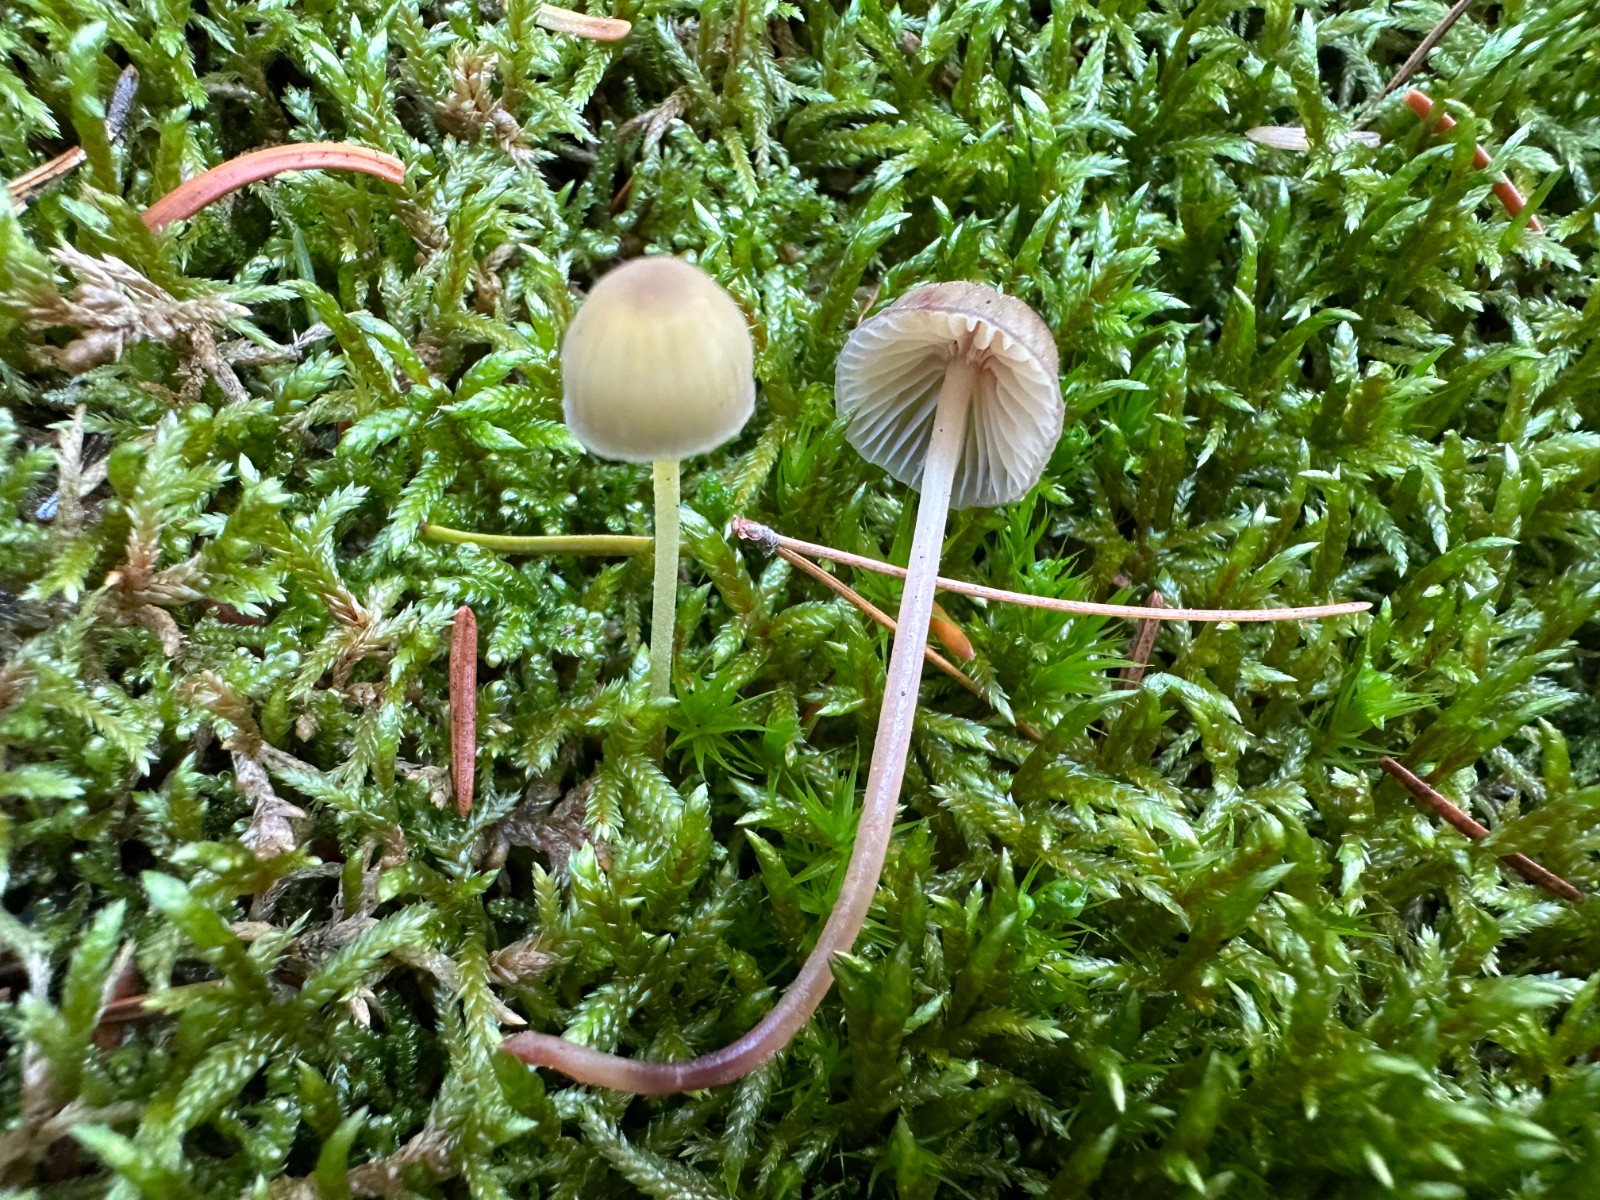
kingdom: Fungi
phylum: Basidiomycota
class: Agaricomycetes
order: Agaricales
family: Mycenaceae
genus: Mycena
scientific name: Mycena epipterygia
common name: gulstokket huesvamp
